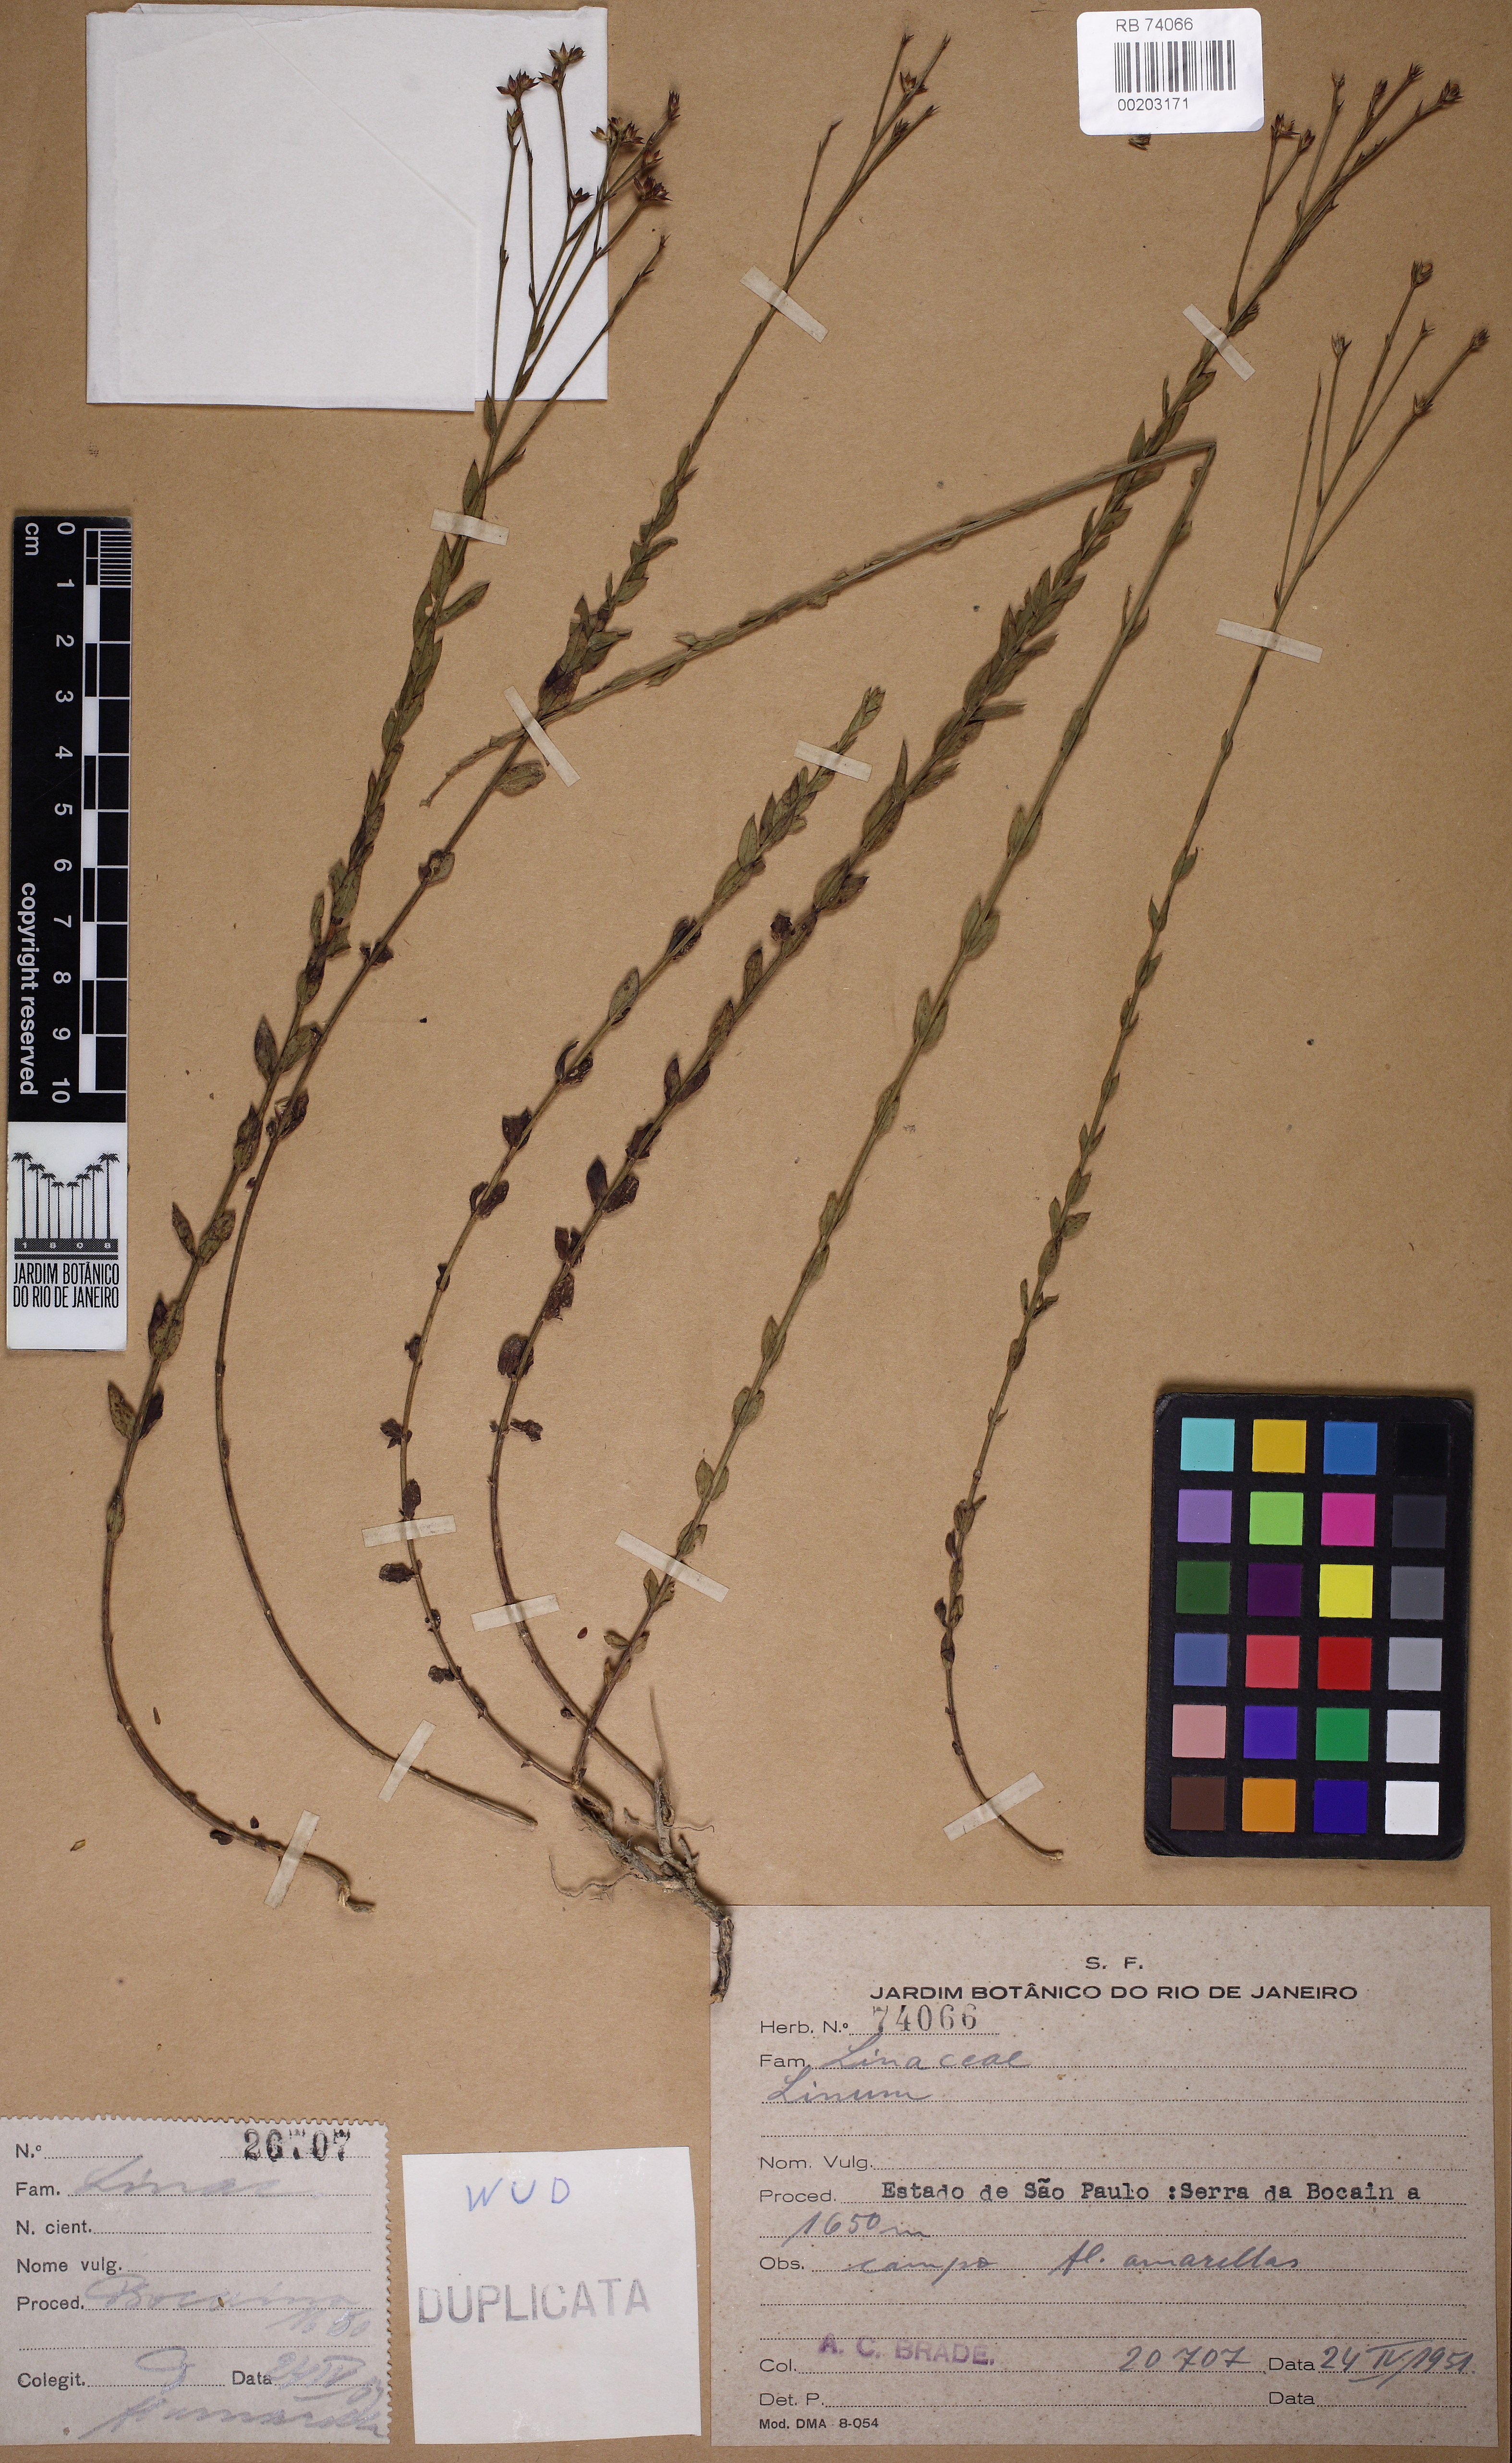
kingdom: Plantae
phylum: Tracheophyta
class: Magnoliopsida
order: Malpighiales
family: Linaceae
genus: Linum
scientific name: Linum littorale
